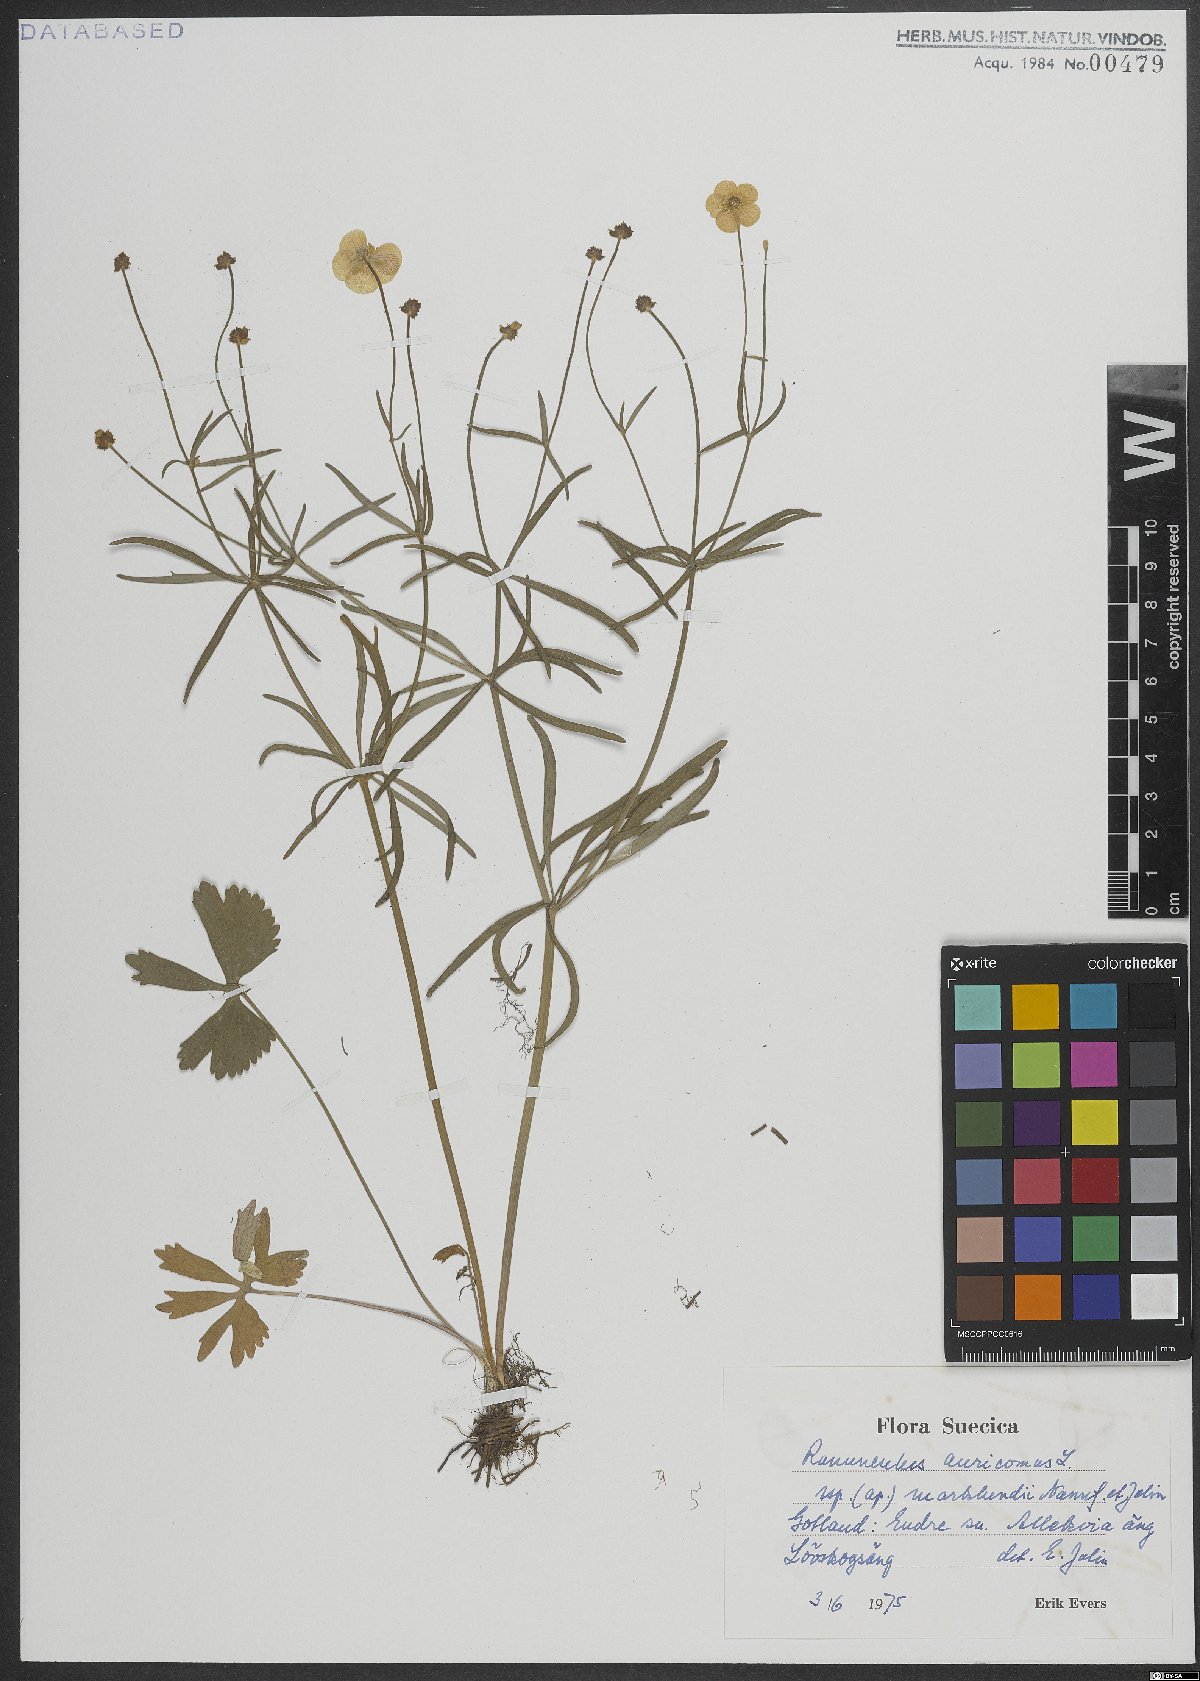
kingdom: Plantae
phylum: Tracheophyta
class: Magnoliopsida
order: Ranunculales
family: Ranunculaceae
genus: Ranunculus
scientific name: Ranunculus auricomus
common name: Goldilocks buttercup
